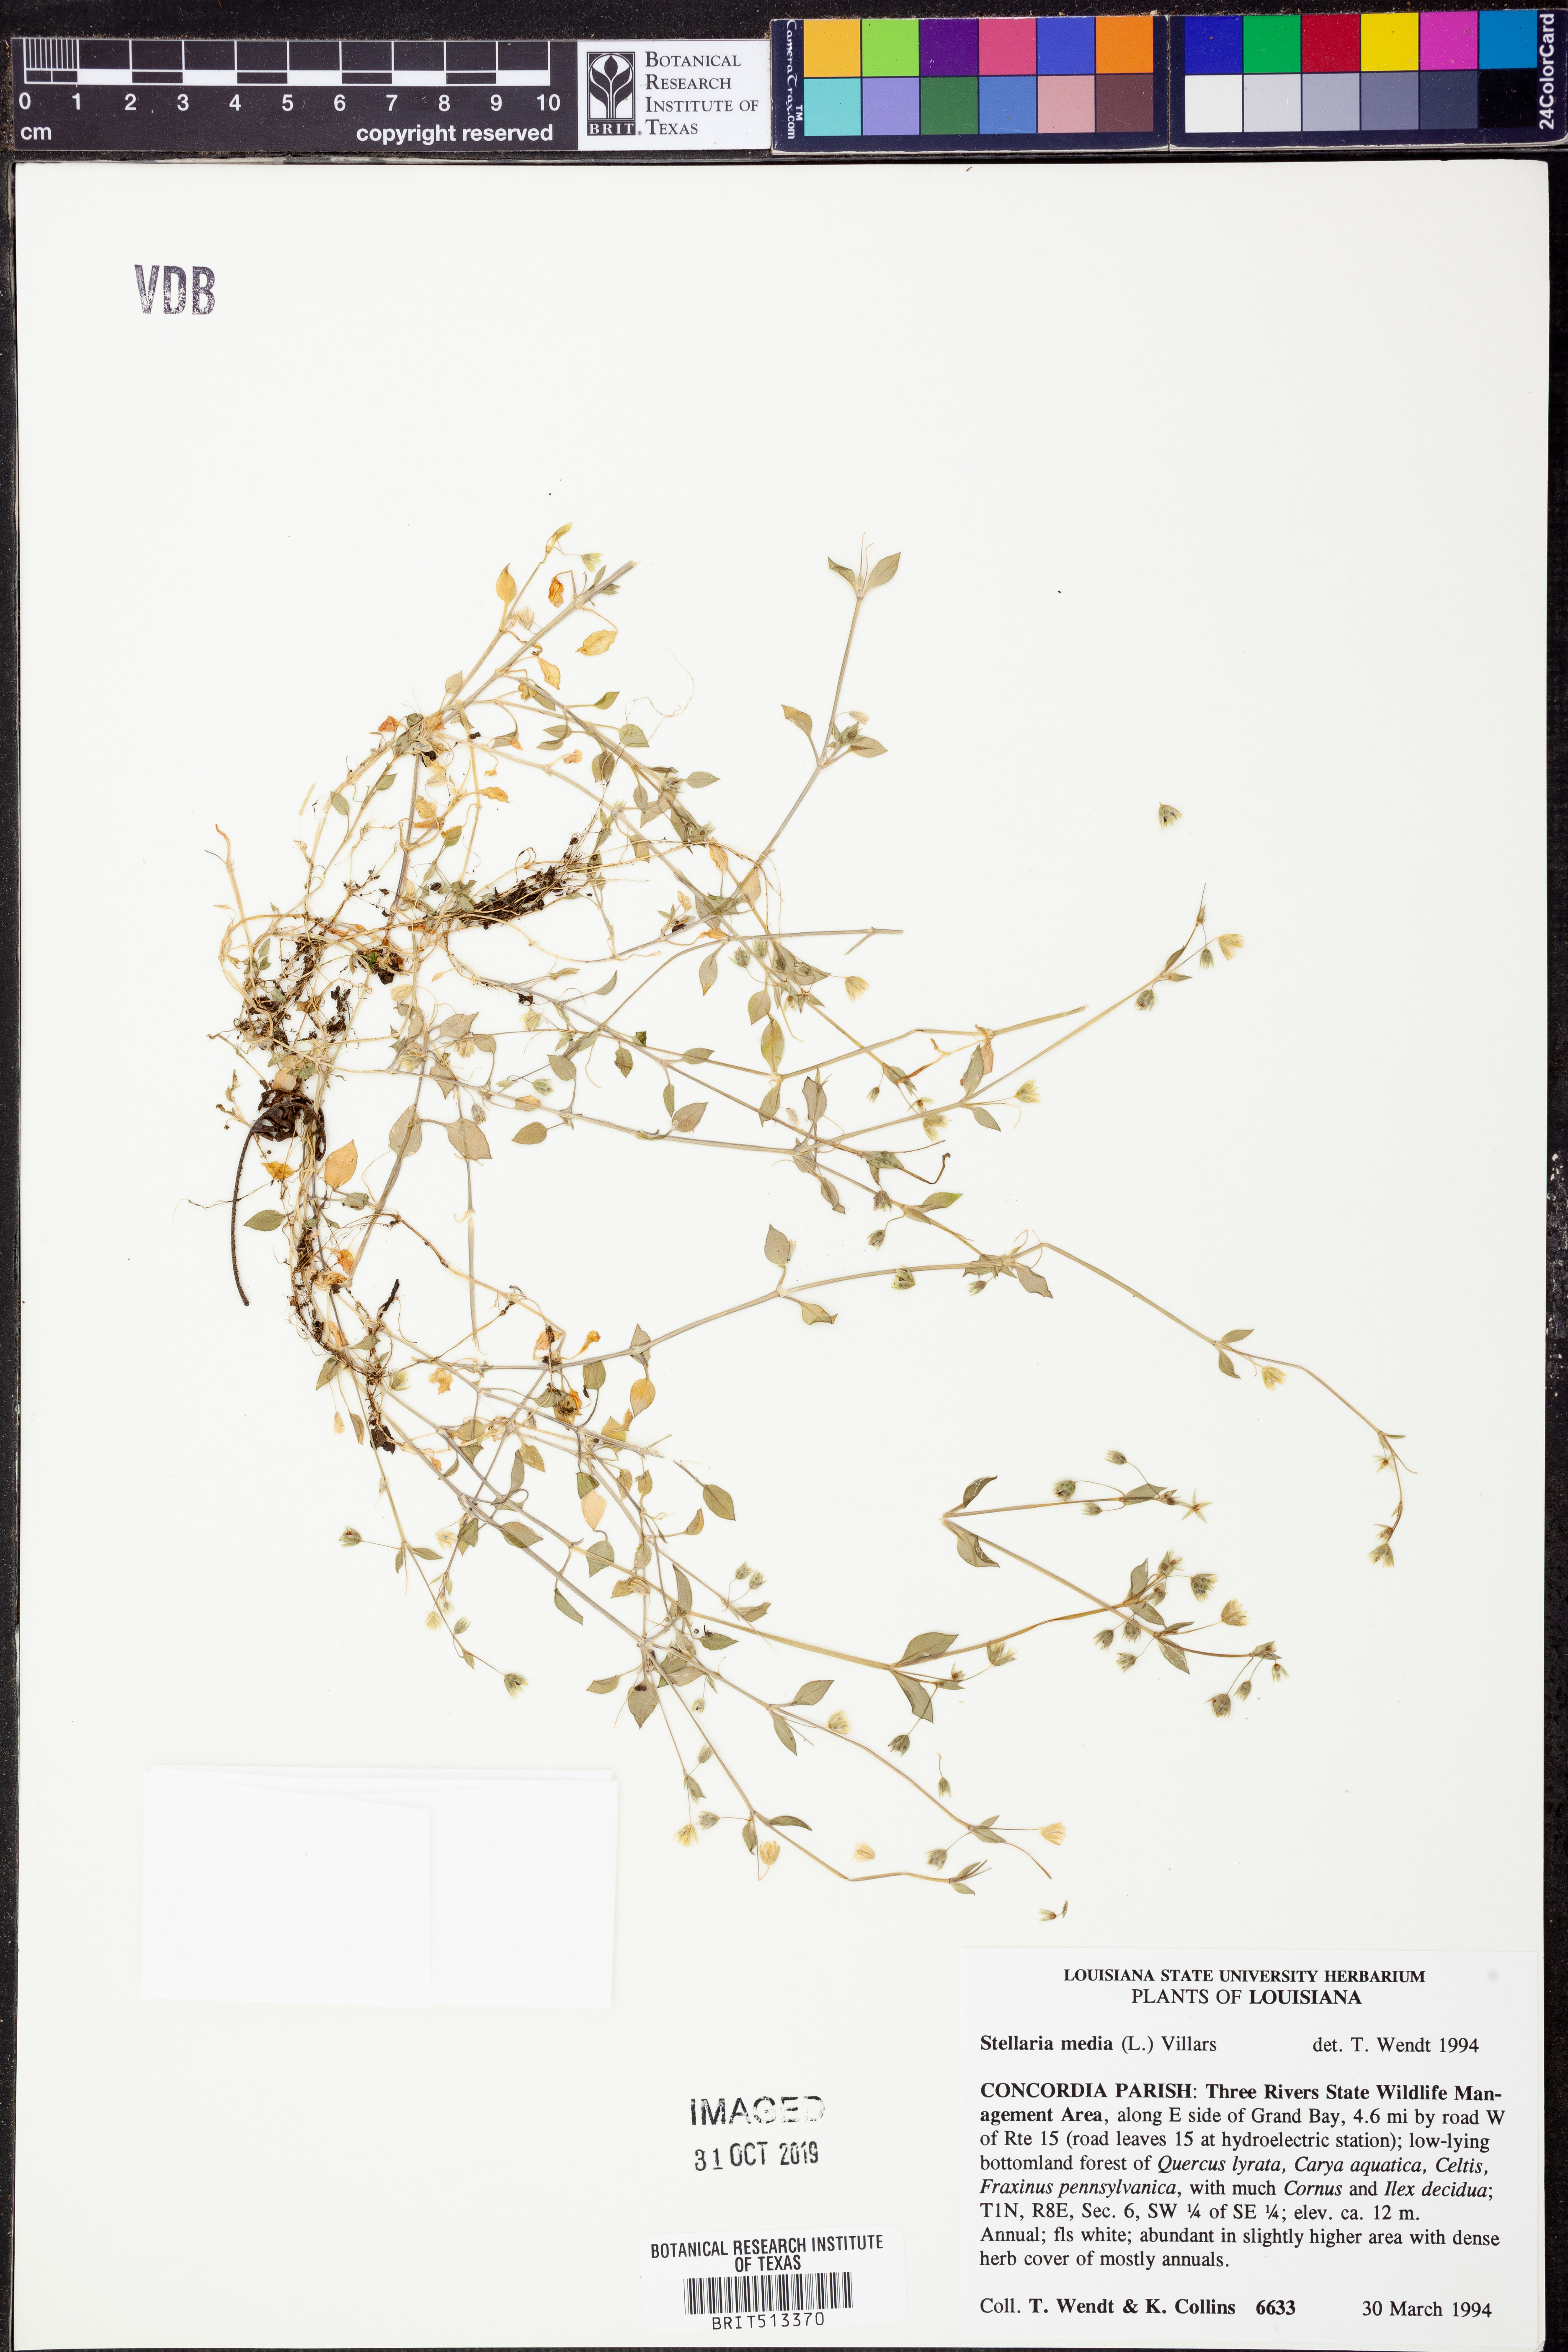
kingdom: Plantae
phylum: Tracheophyta
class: Magnoliopsida
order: Caryophyllales
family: Caryophyllaceae
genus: Stellaria
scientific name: Stellaria media
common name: Common chickweed
